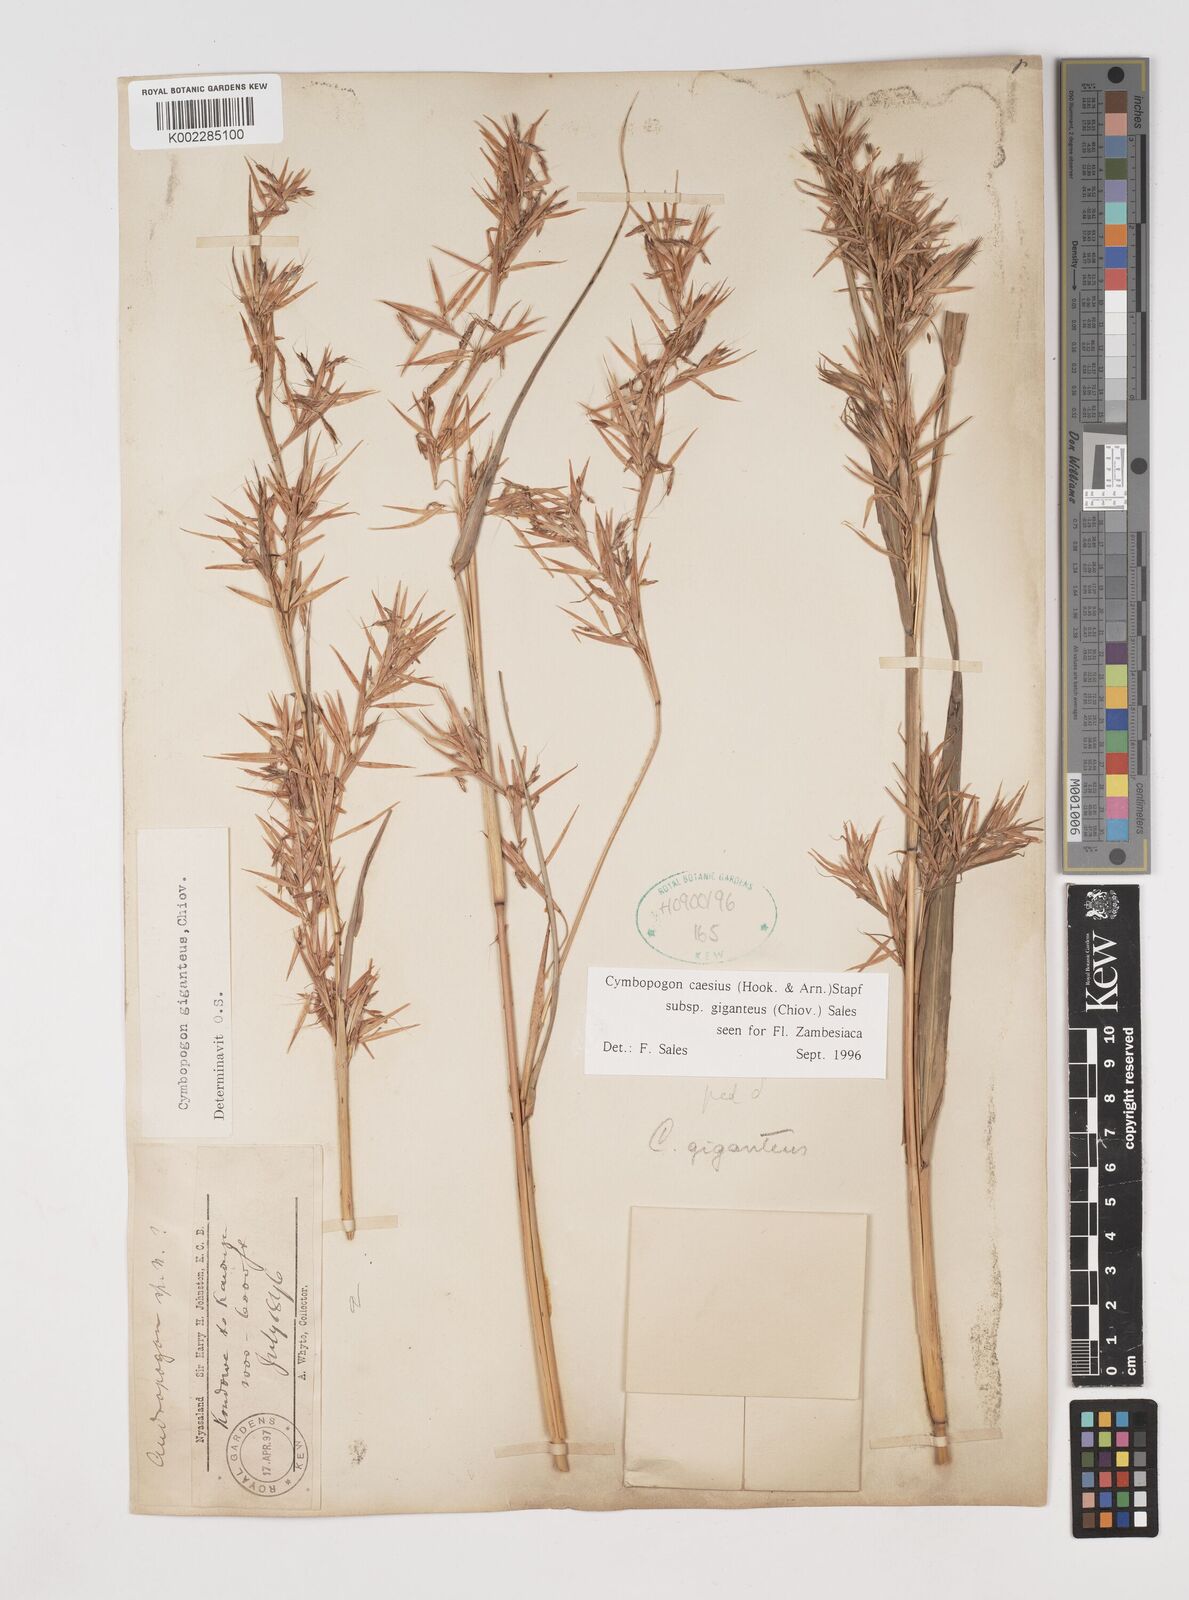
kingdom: Plantae
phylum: Tracheophyta
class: Liliopsida
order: Poales
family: Poaceae
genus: Cymbopogon
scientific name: Cymbopogon giganteus
